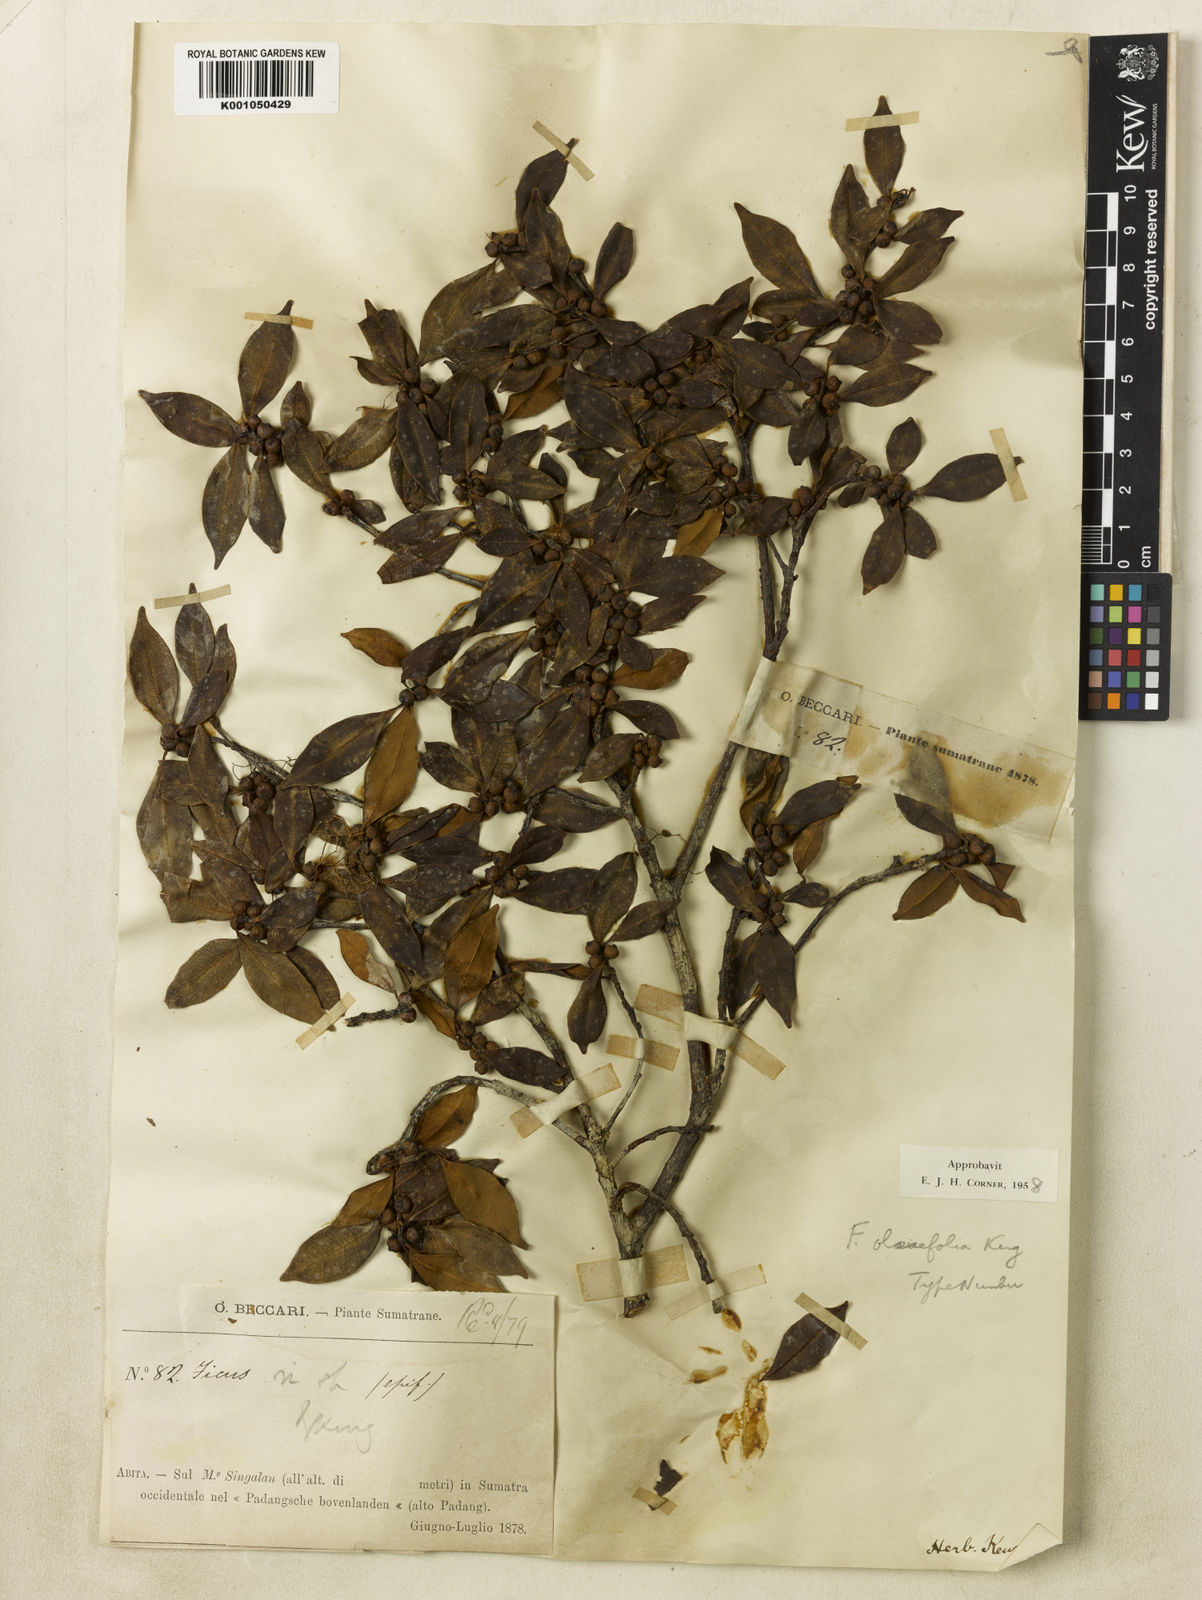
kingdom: Plantae
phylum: Tracheophyta
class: Magnoliopsida
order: Rosales
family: Moraceae
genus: Ficus
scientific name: Ficus oleifolia
